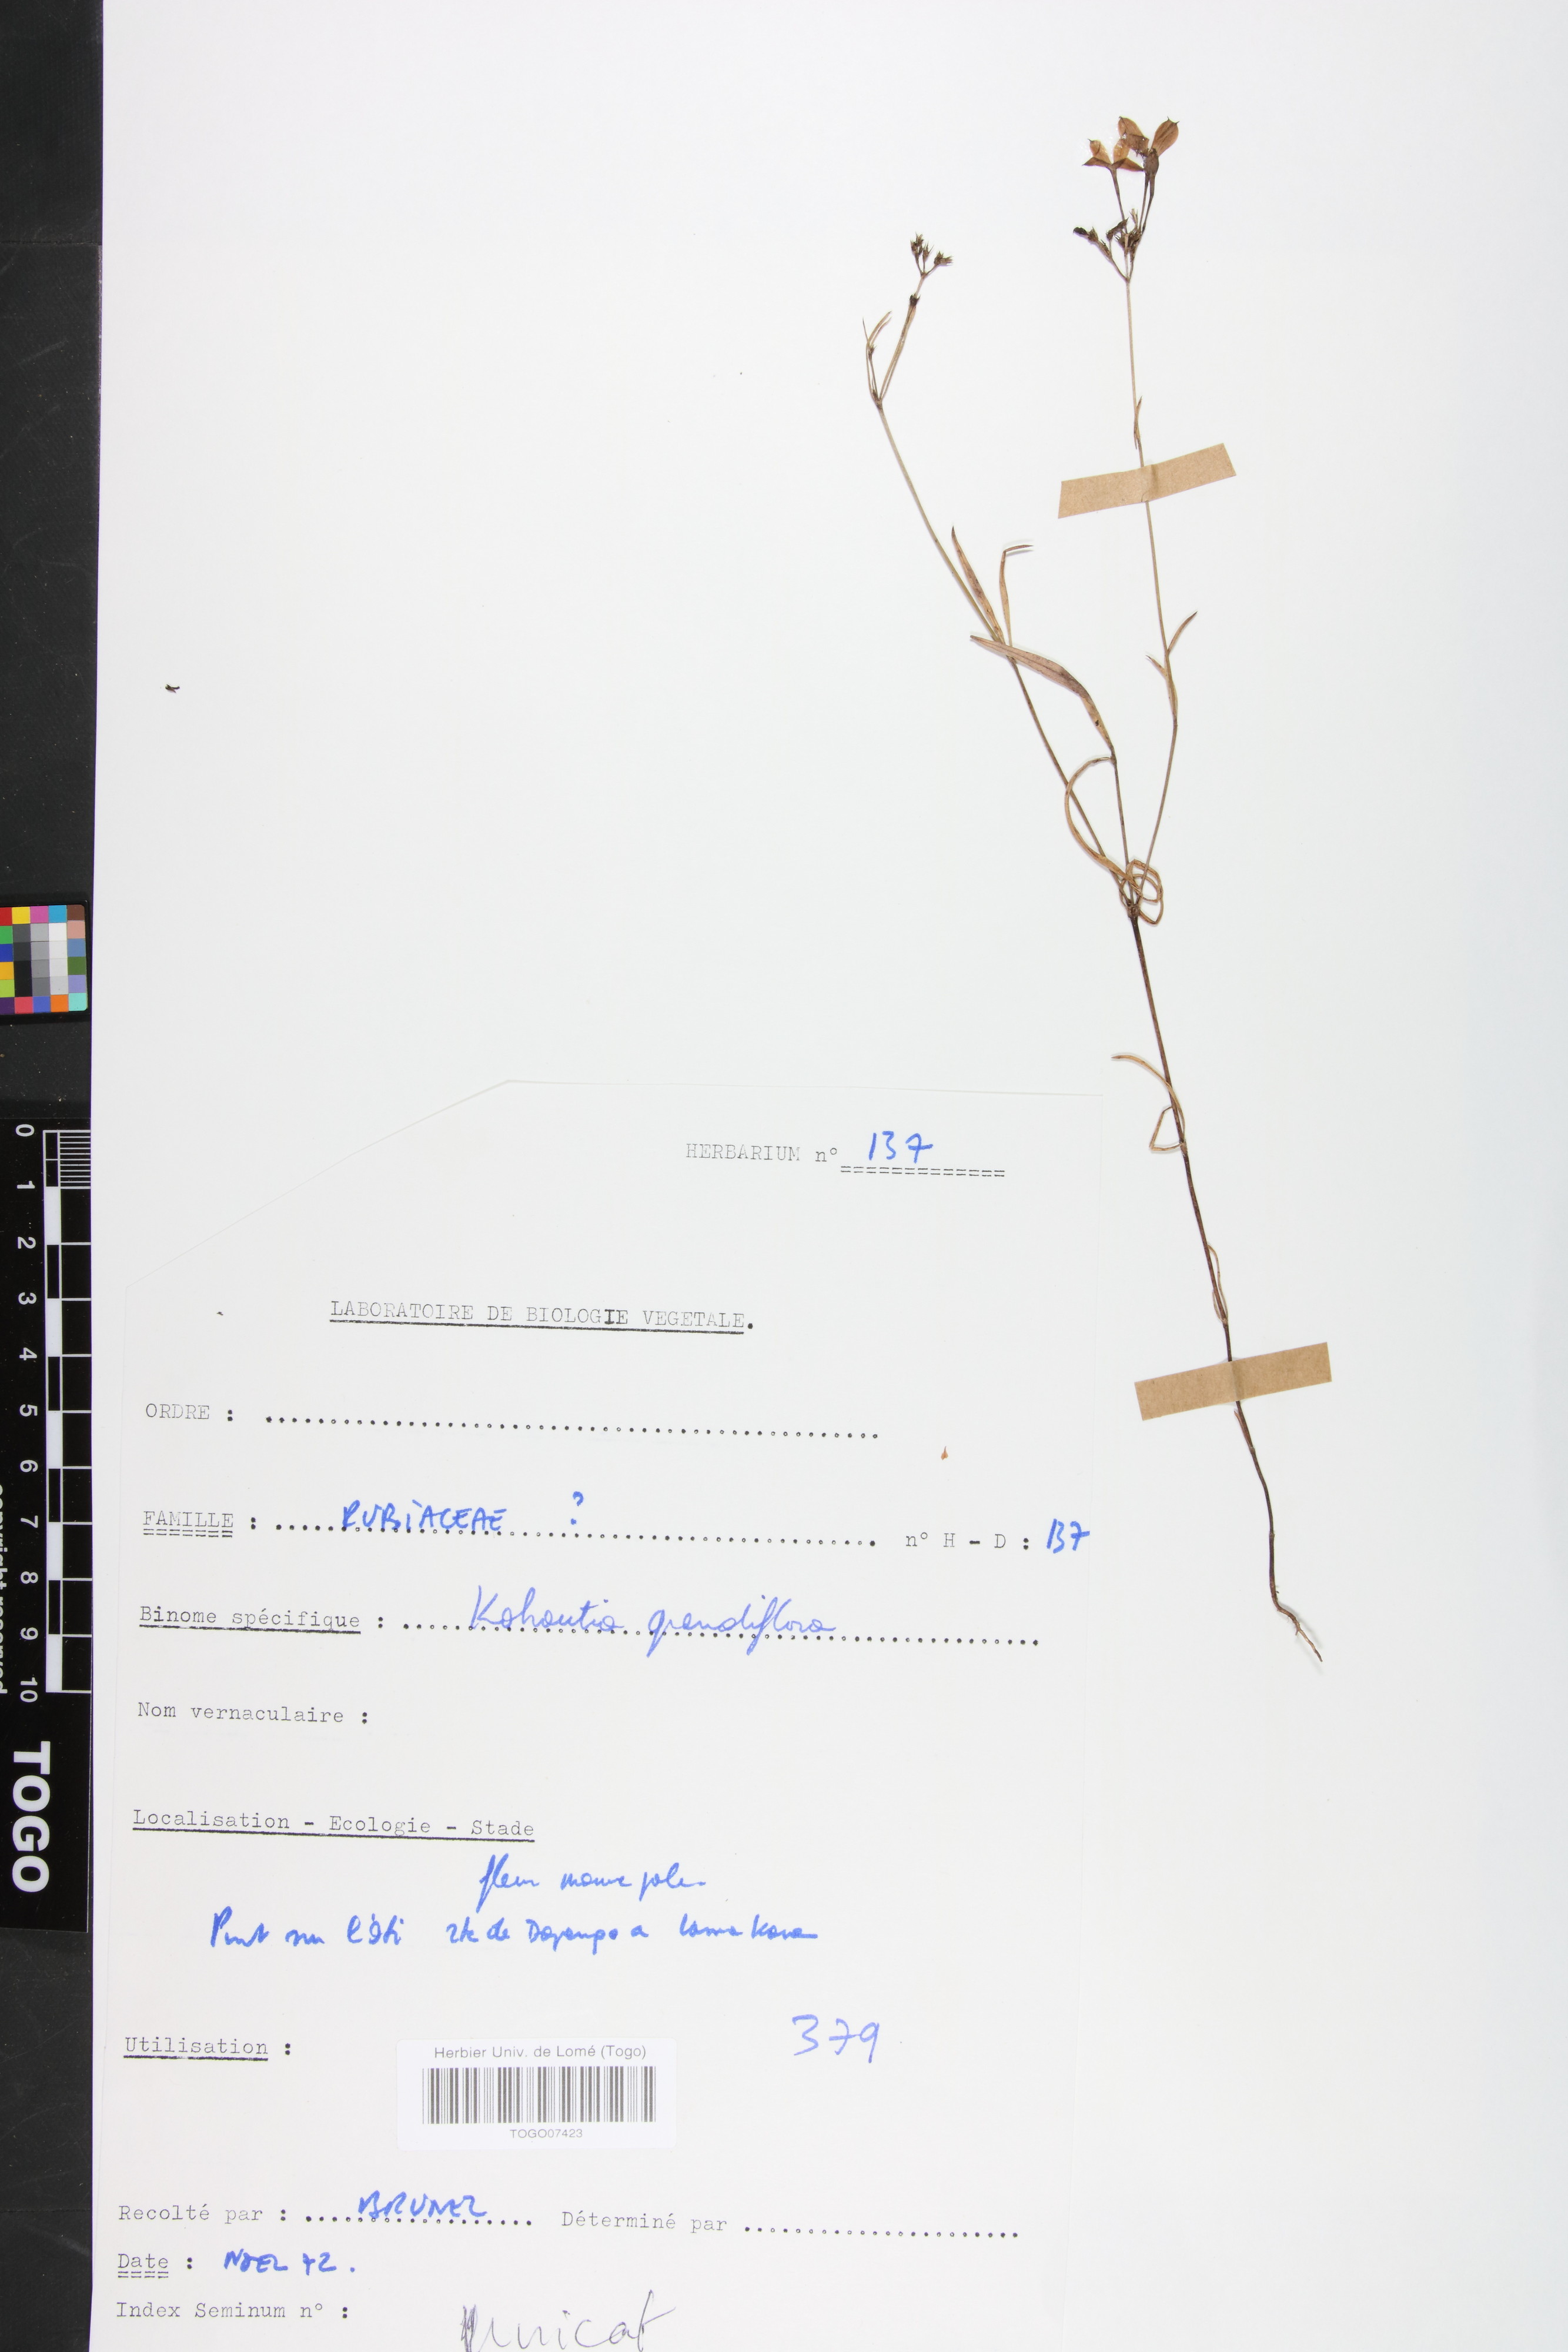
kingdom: Plantae
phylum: Tracheophyta
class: Magnoliopsida
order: Gentianales
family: Rubiaceae
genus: Kohautia
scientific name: Kohautia grandiflora
